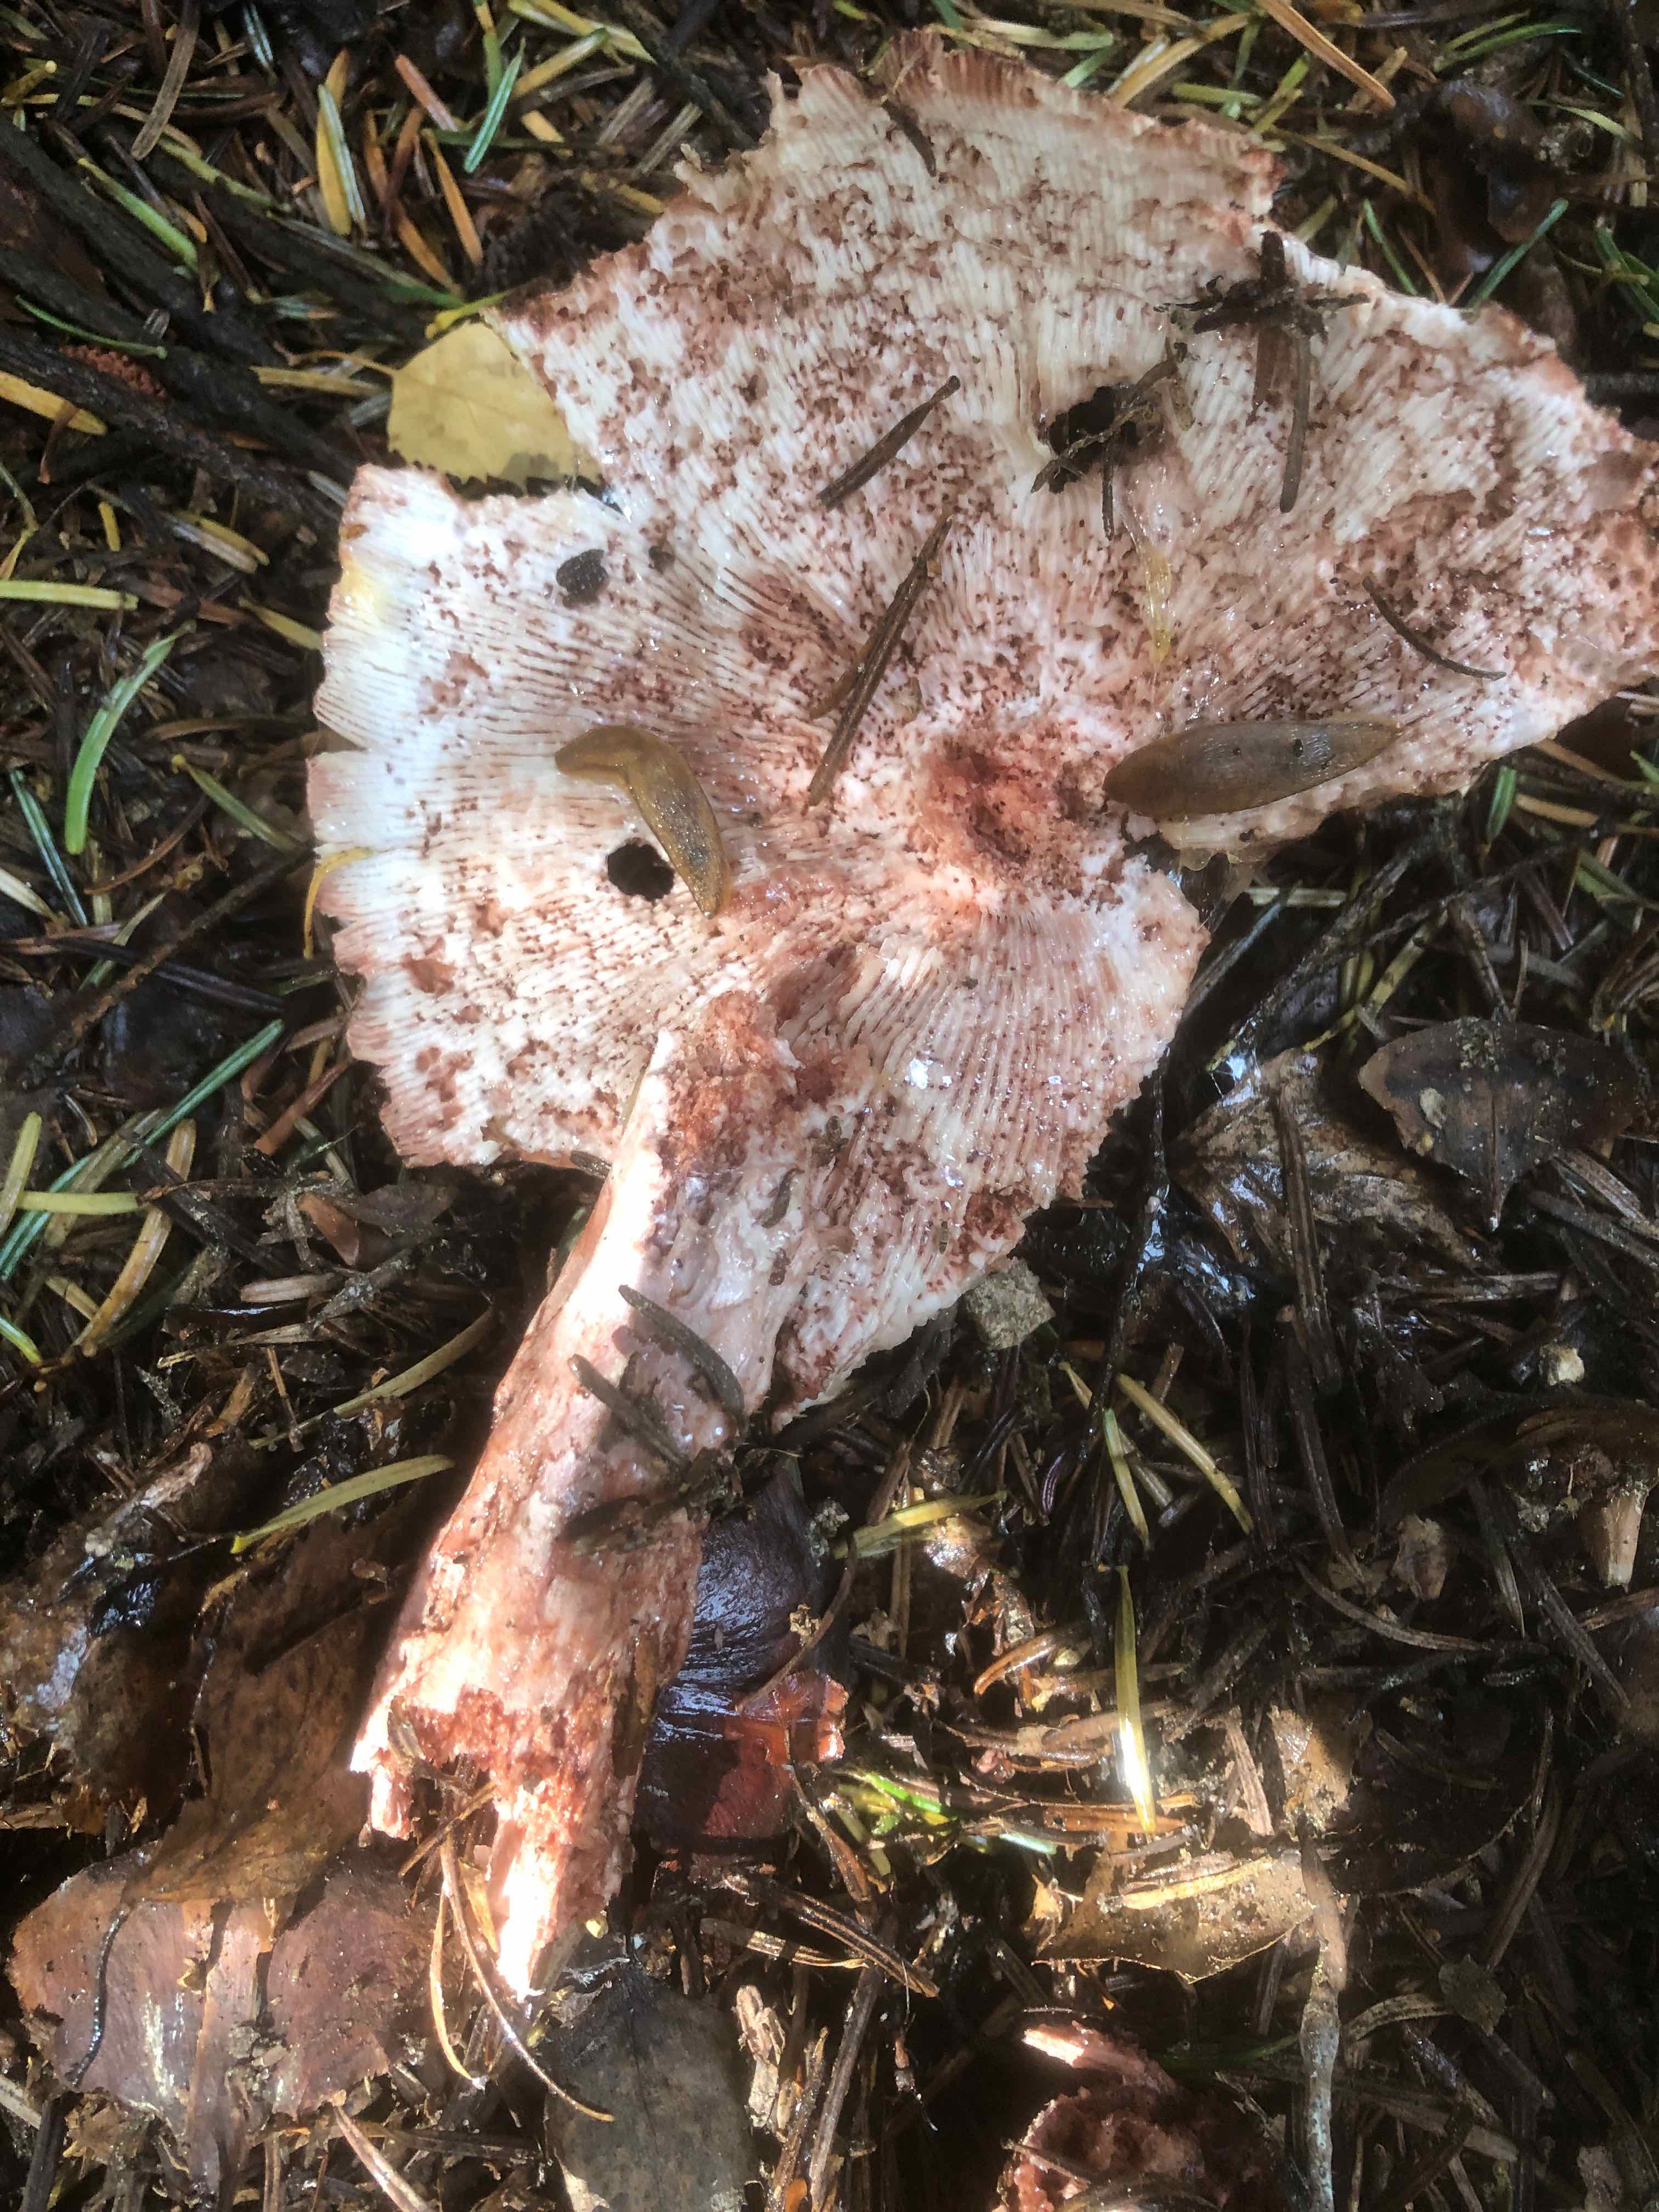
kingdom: Fungi
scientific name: Fungi
